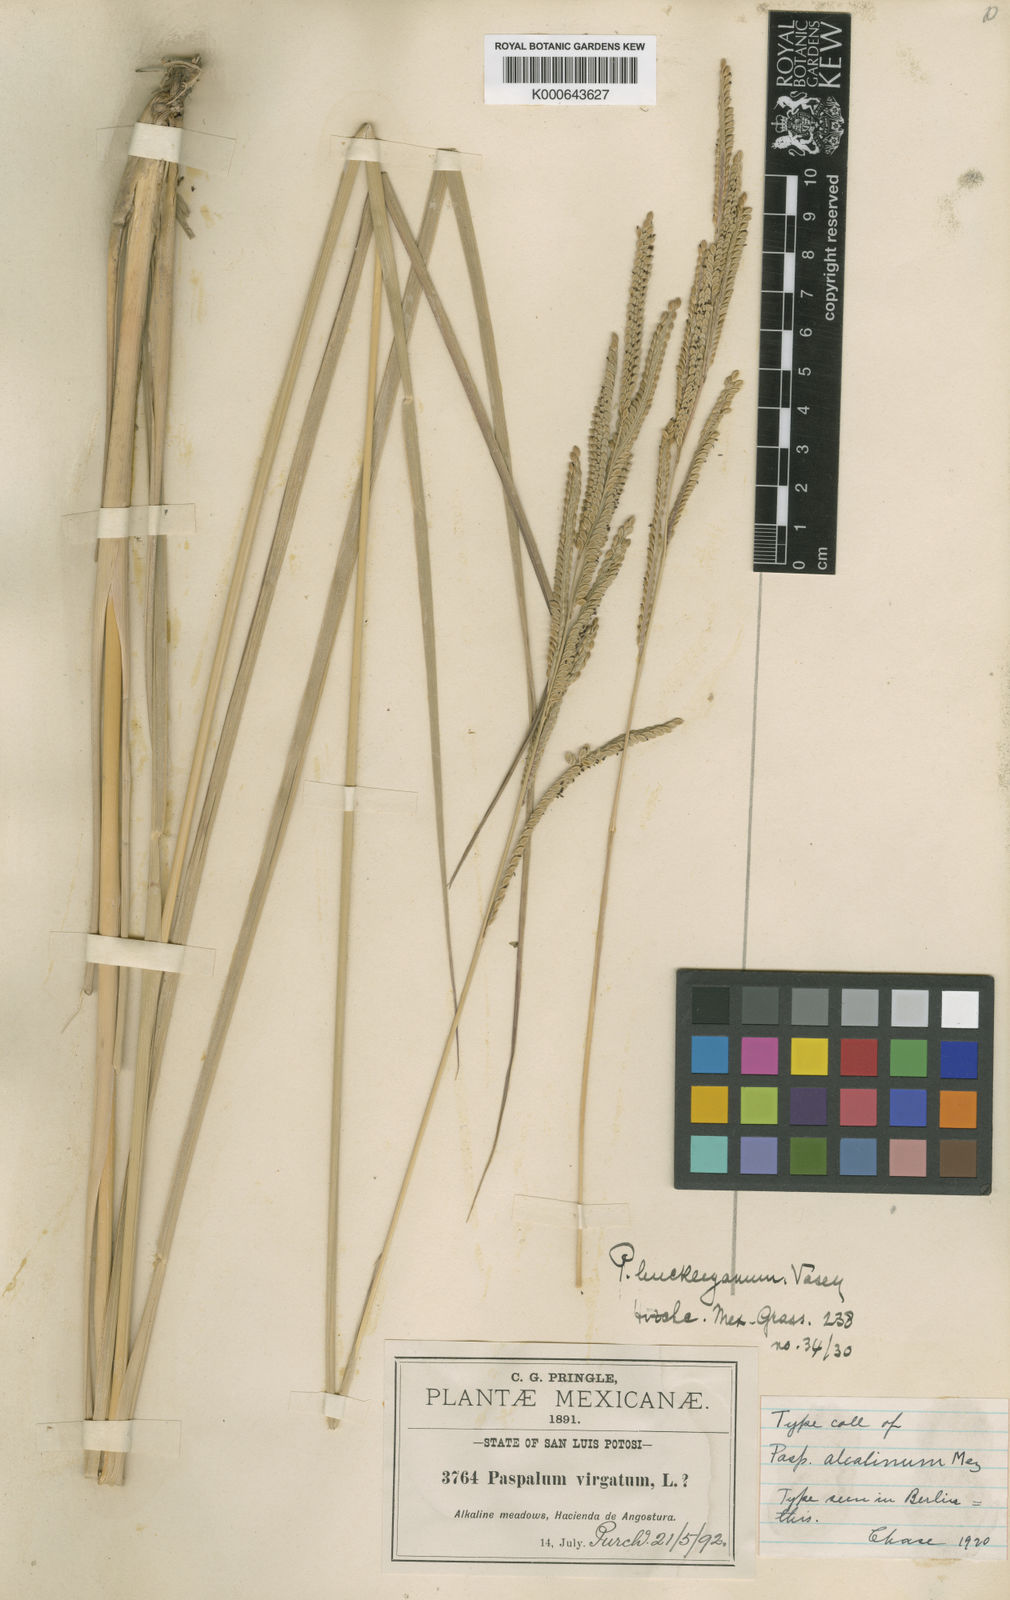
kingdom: Plantae
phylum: Tracheophyta
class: Liliopsida
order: Poales
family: Poaceae
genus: Paspalum
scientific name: Paspalum hartwegianum
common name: Hartweg's paspalum
